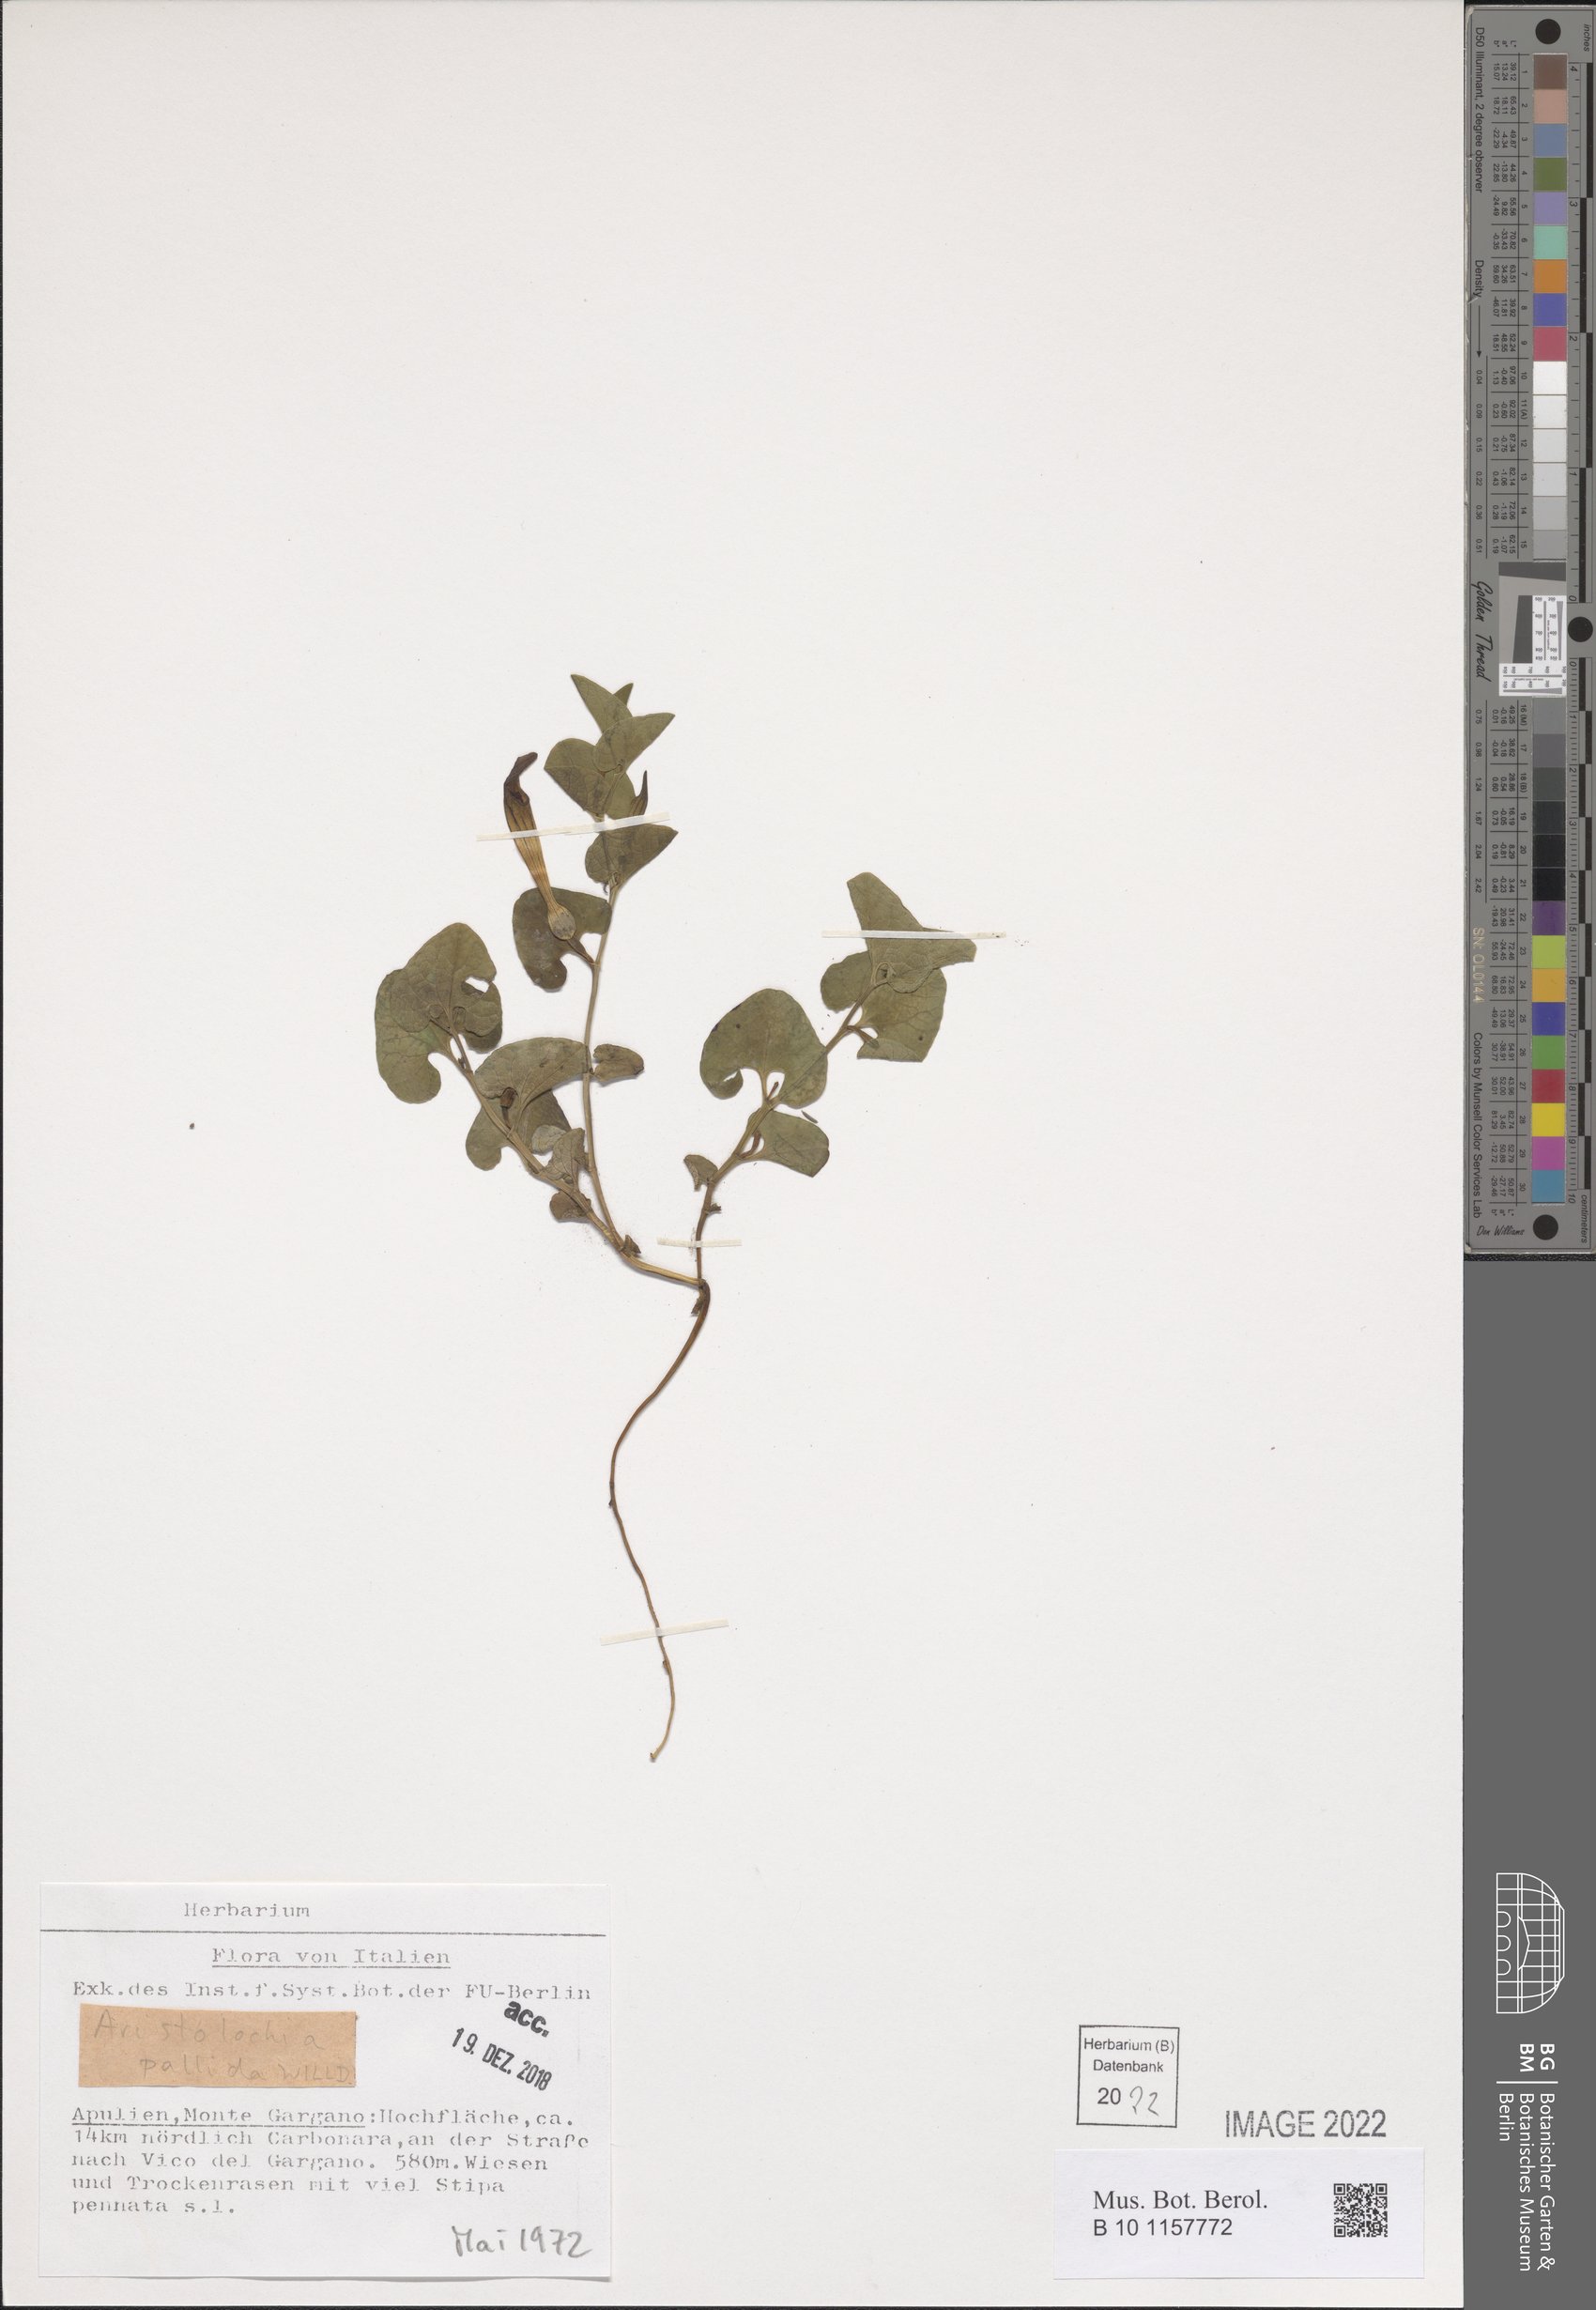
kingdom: Plantae
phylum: Tracheophyta
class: Magnoliopsida
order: Piperales
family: Aristolochiaceae
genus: Aristolochia
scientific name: Aristolochia pallida
